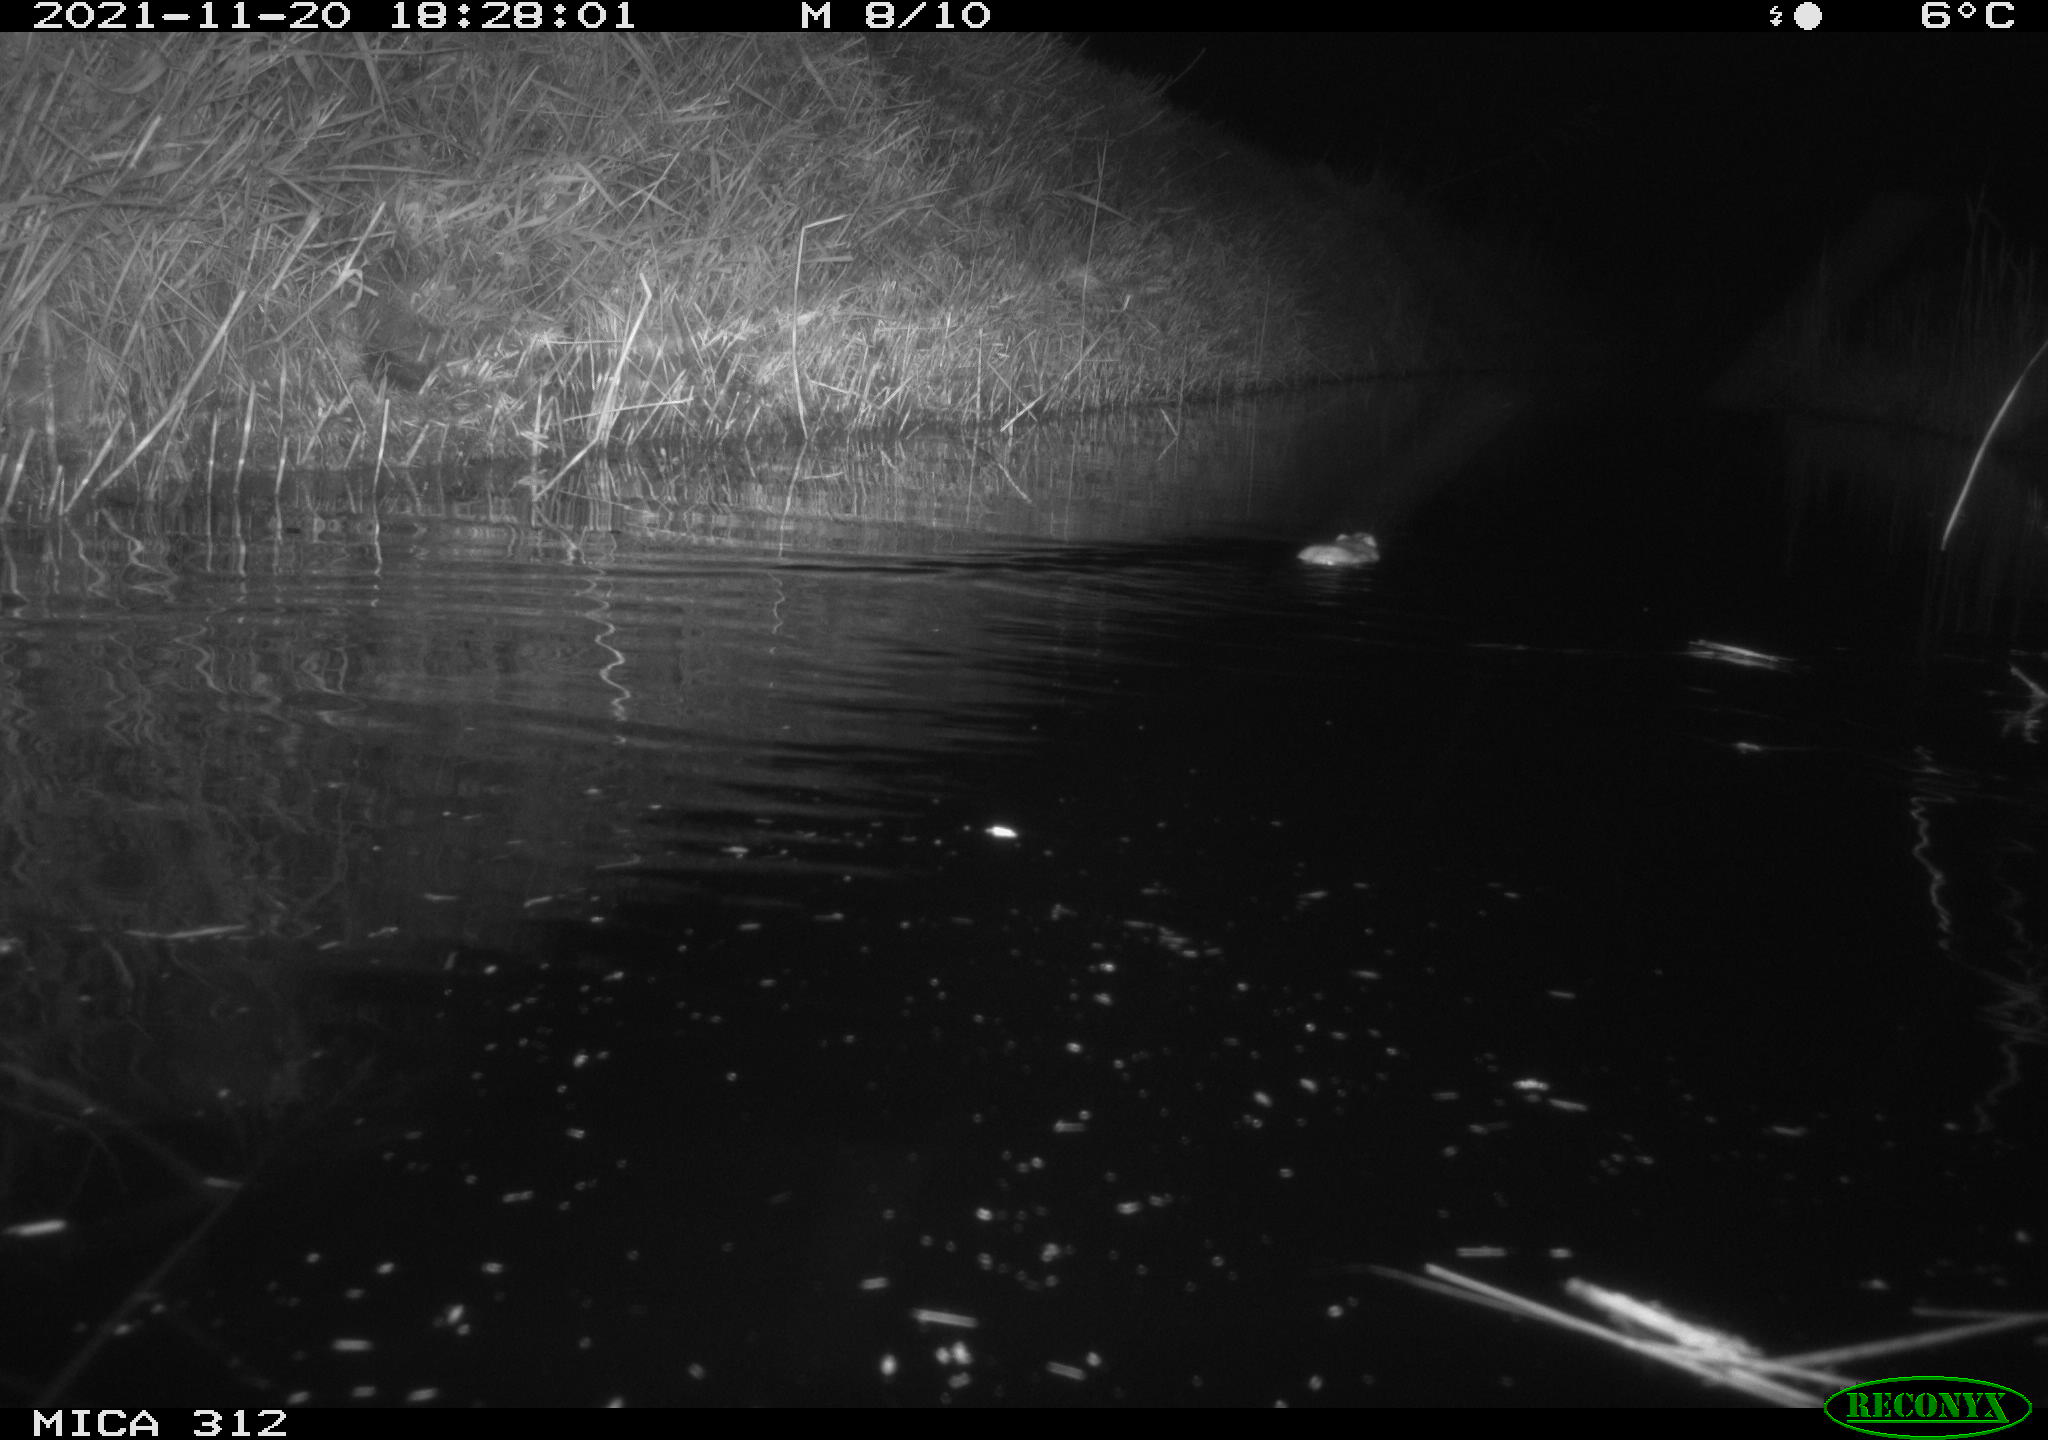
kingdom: Animalia
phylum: Chordata
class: Mammalia
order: Rodentia
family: Muridae
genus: Rattus
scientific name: Rattus norvegicus
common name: Brown rat
